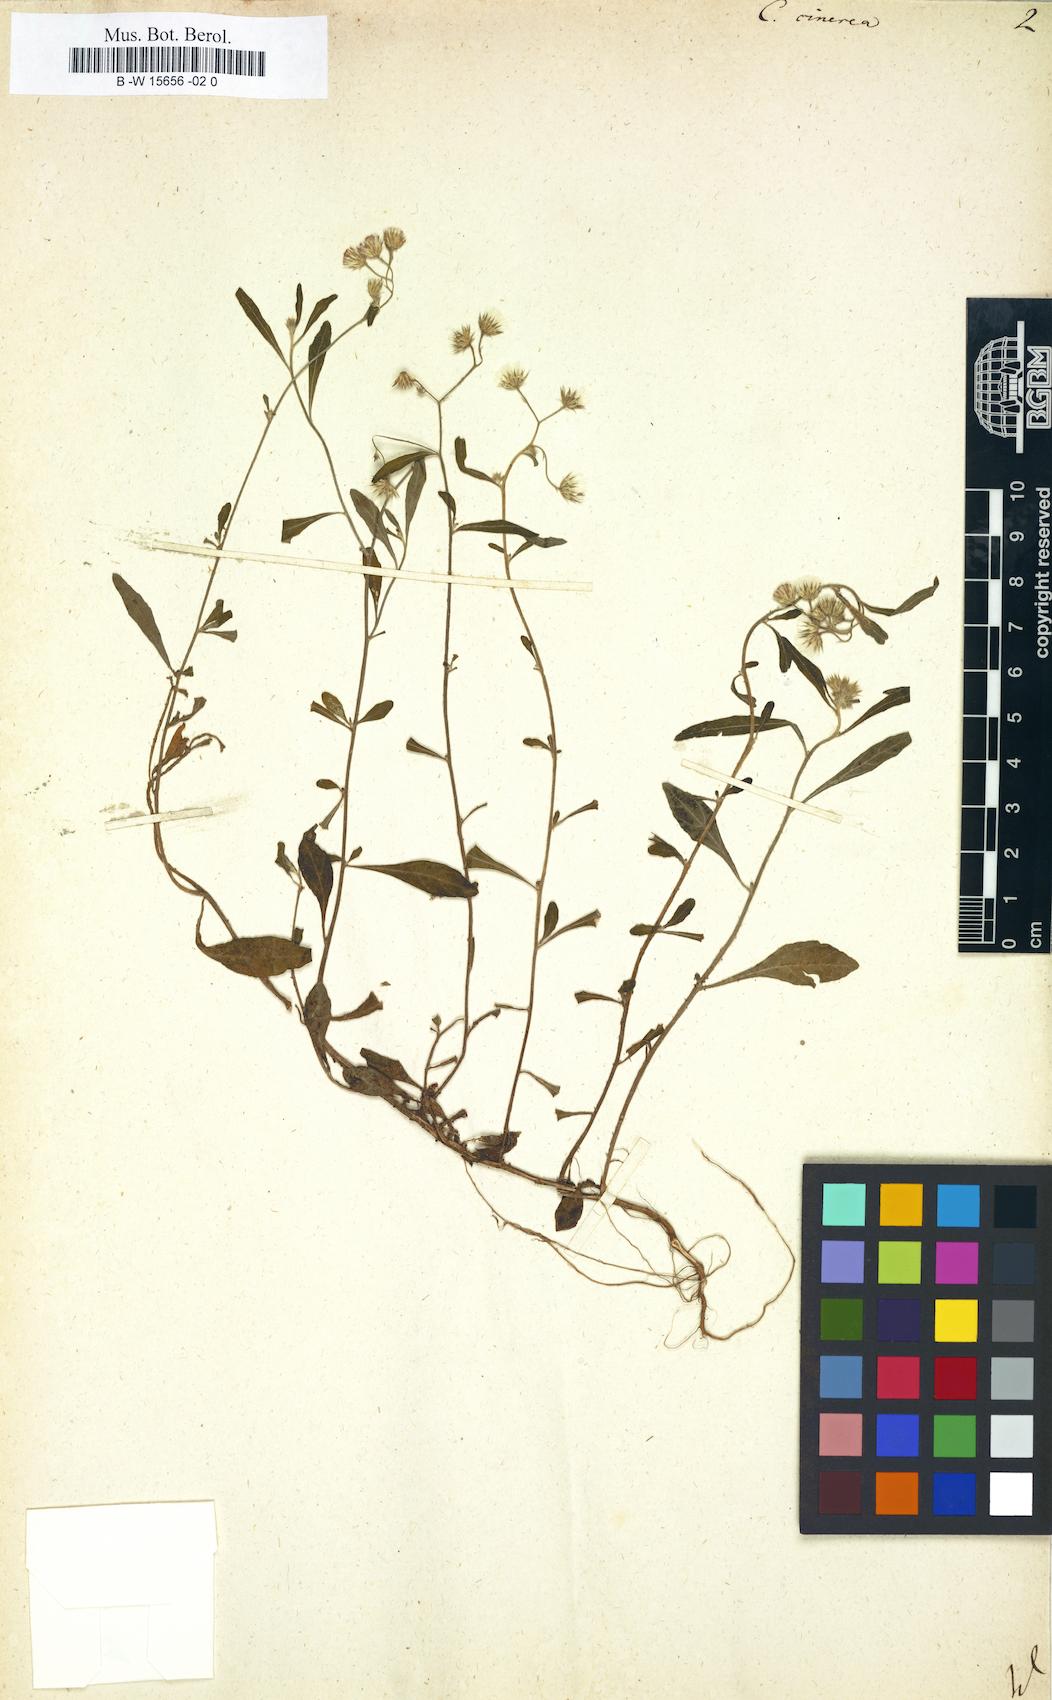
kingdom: Plantae
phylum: Tracheophyta
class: Magnoliopsida
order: Asterales
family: Asteraceae
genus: Cyanthillium
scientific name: Cyanthillium cinereum
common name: Little ironweed
